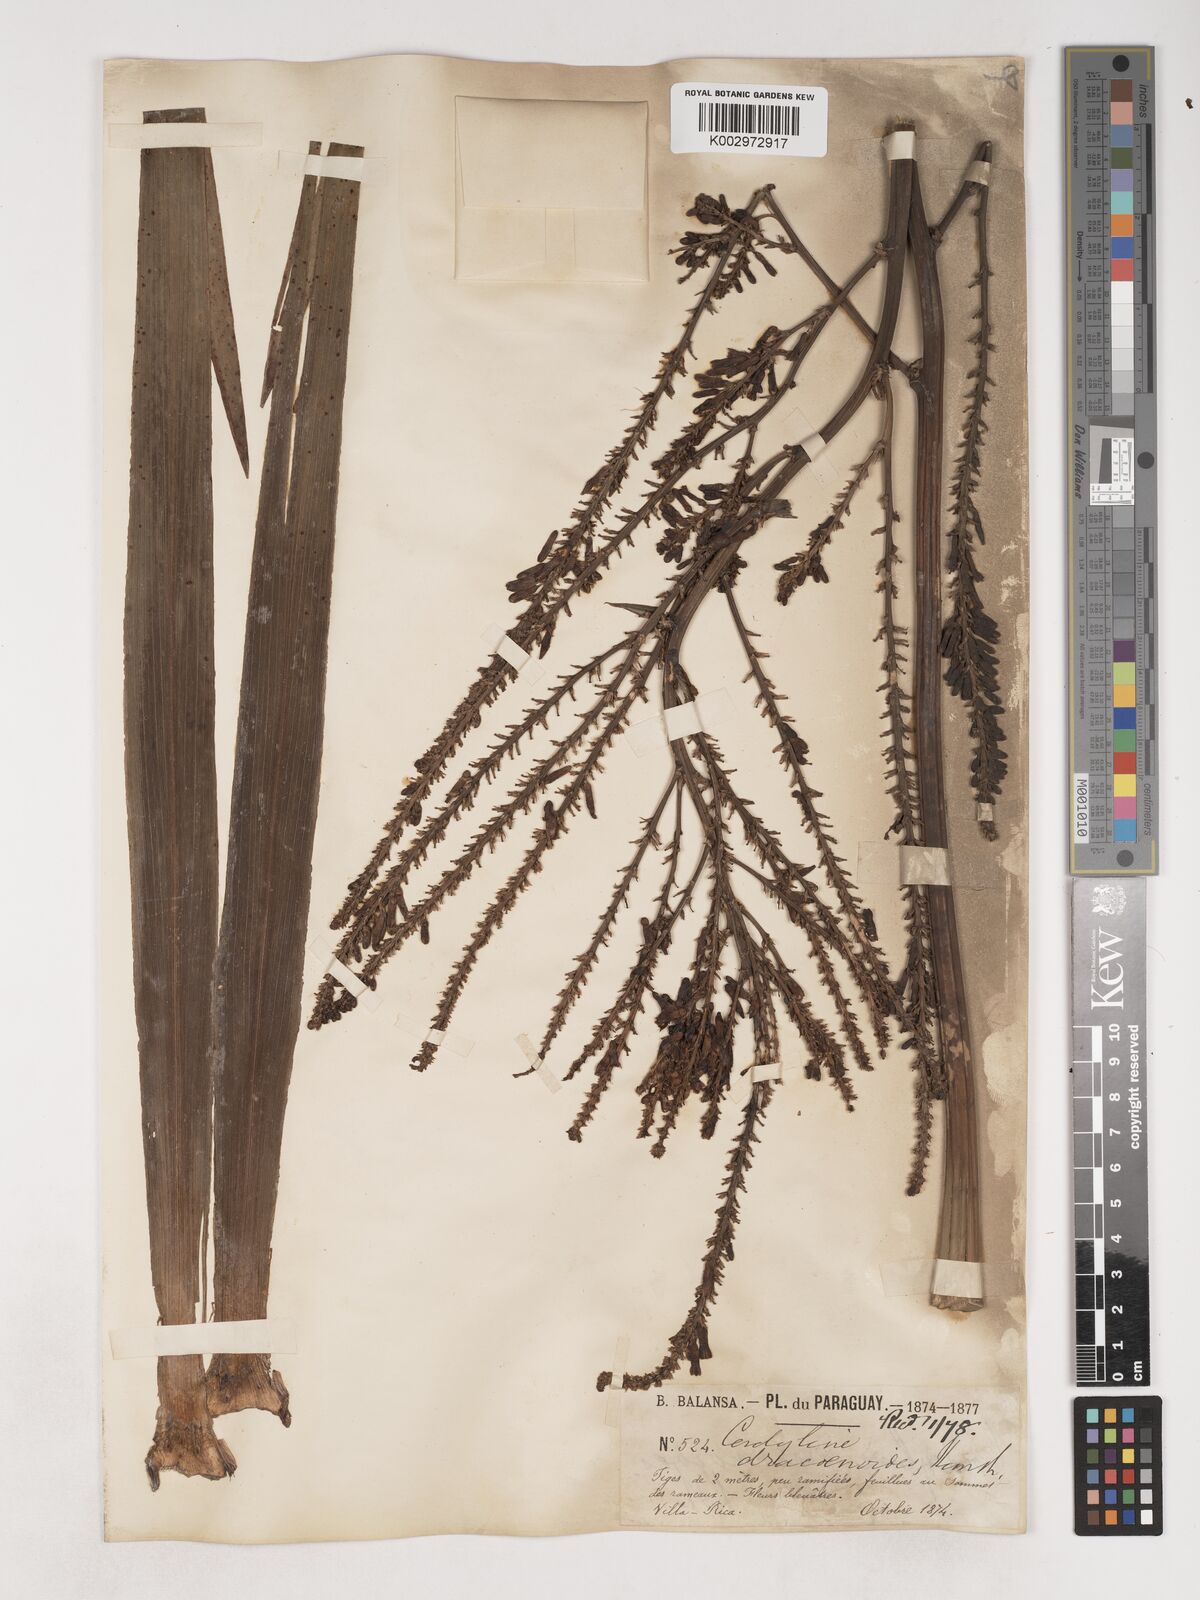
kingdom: Plantae
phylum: Tracheophyta
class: Liliopsida
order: Asparagales
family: Asparagaceae
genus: Cordyline
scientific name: Cordyline congesta
